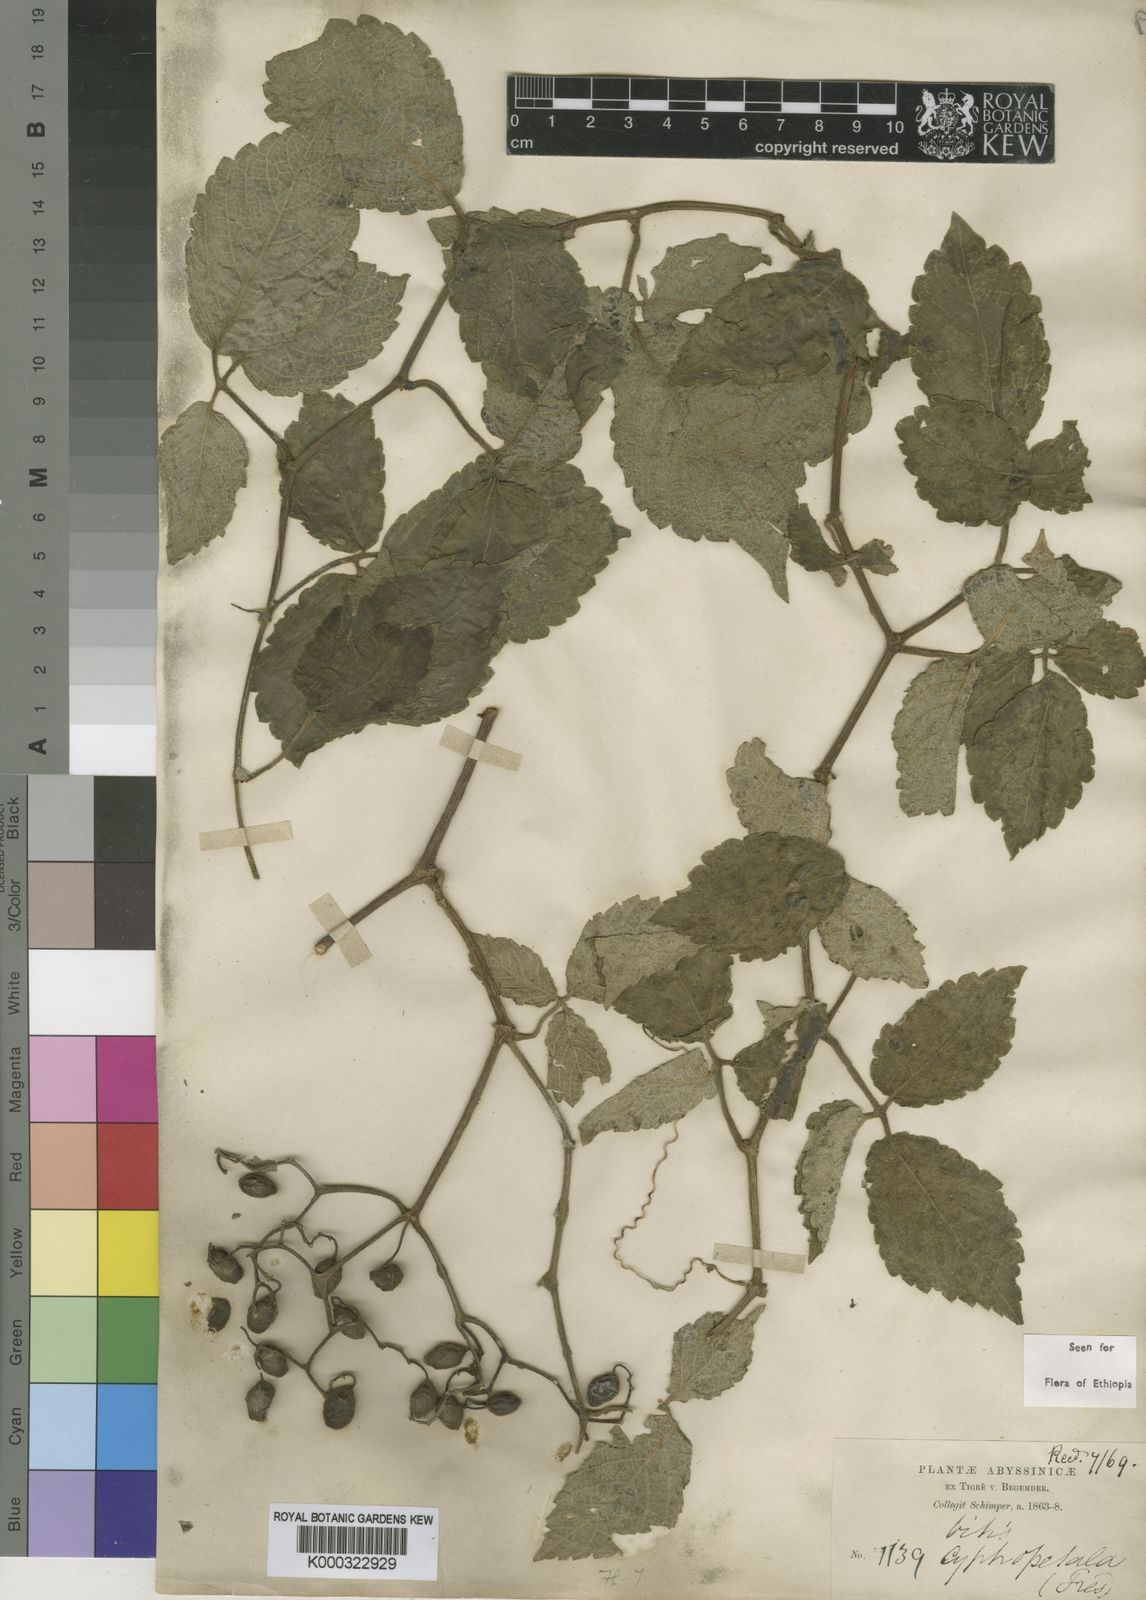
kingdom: Plantae
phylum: Tracheophyta
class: Magnoliopsida
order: Vitales
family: Vitaceae
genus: Cyphostemma
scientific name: Cyphostemma
